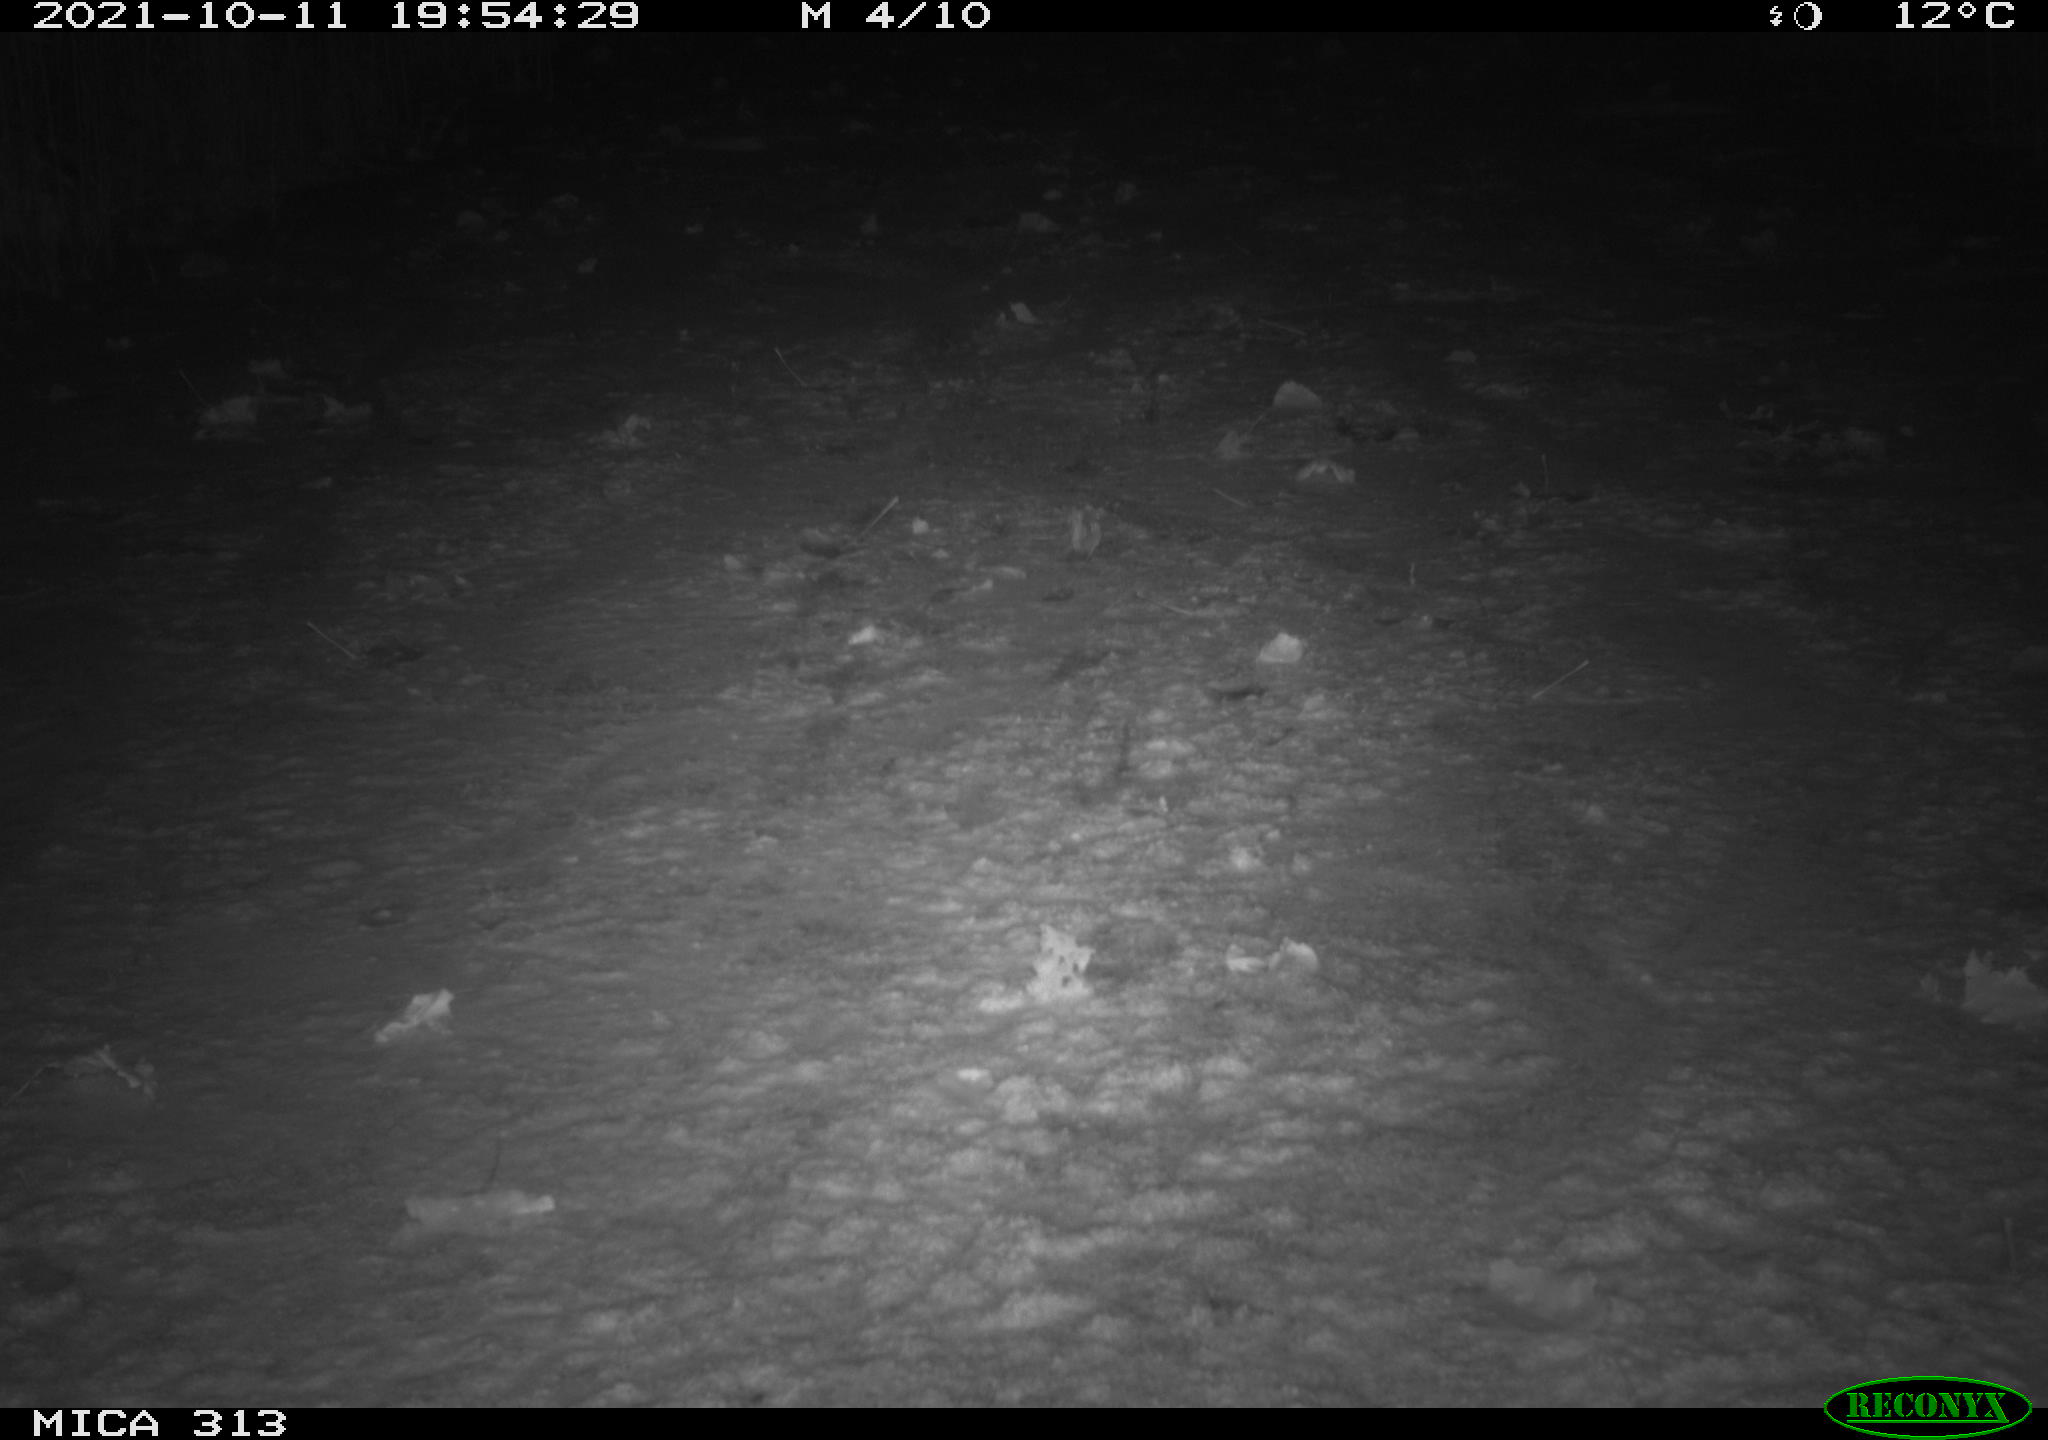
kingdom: Animalia
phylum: Chordata
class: Aves
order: Gruiformes
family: Rallidae
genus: Gallinula
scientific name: Gallinula chloropus
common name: Common moorhen
